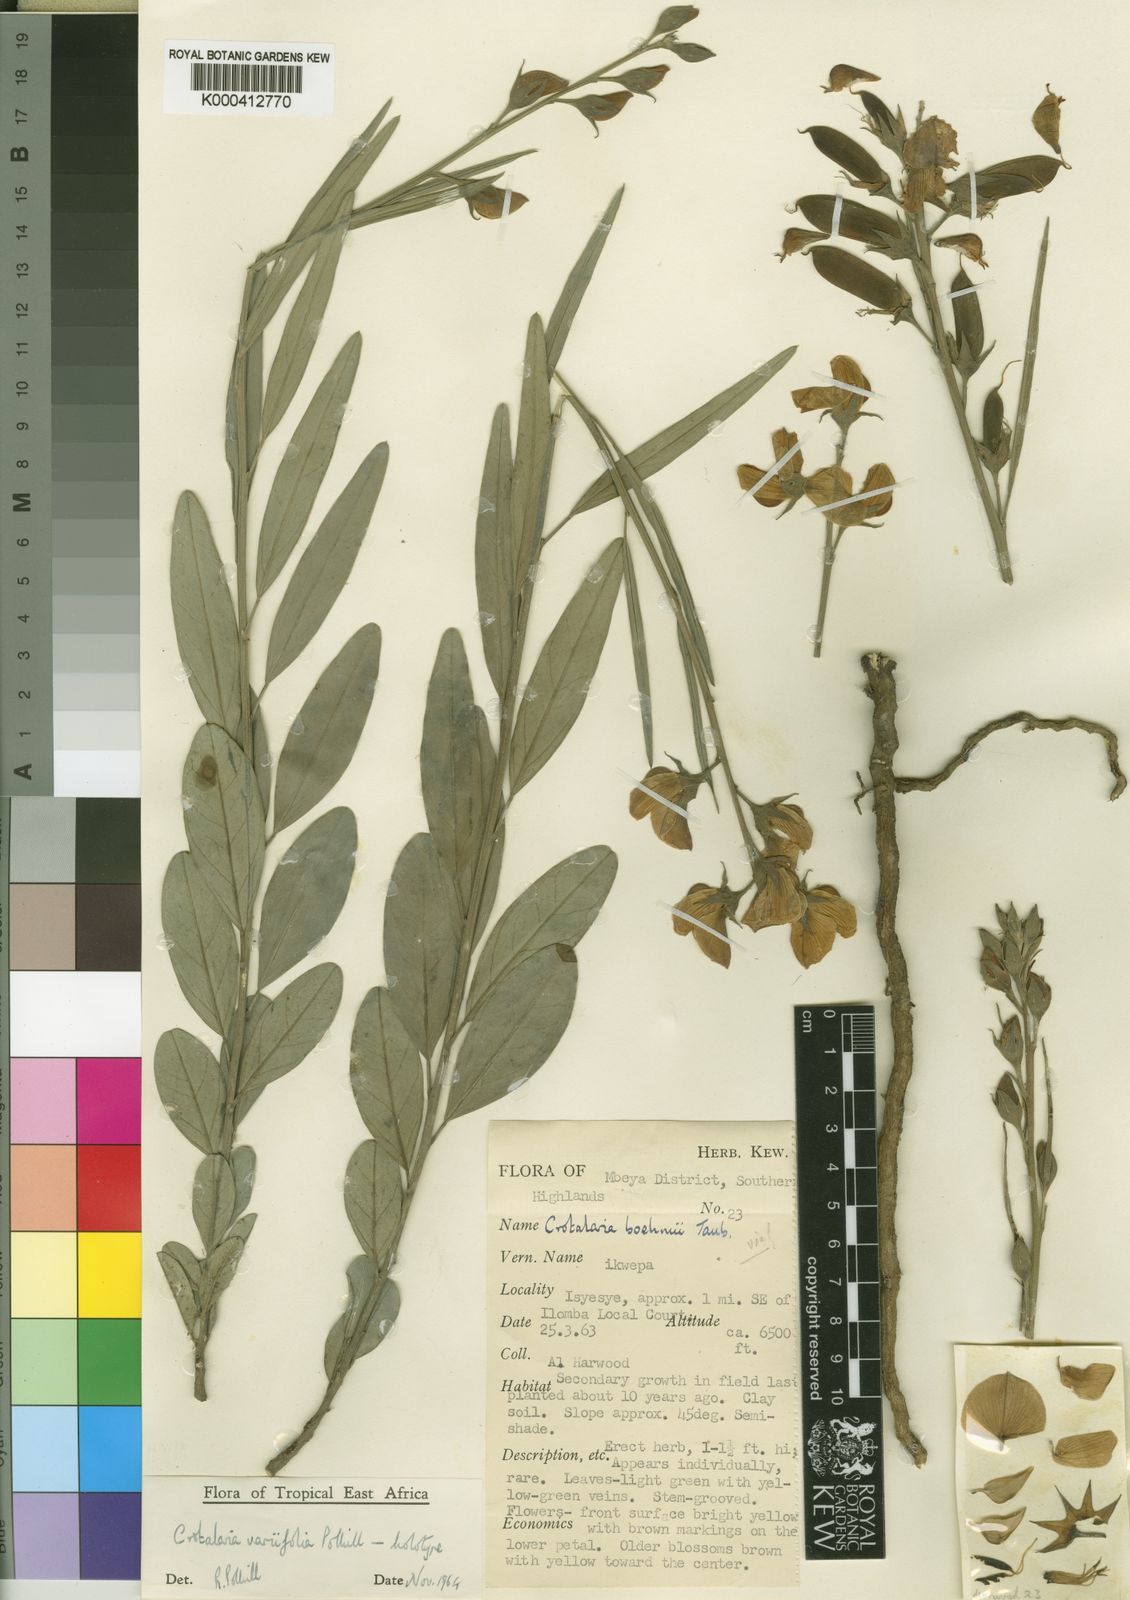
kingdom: Plantae
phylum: Tracheophyta
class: Magnoliopsida
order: Fabales
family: Fabaceae
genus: Crotalaria
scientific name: Crotalaria variifolia
